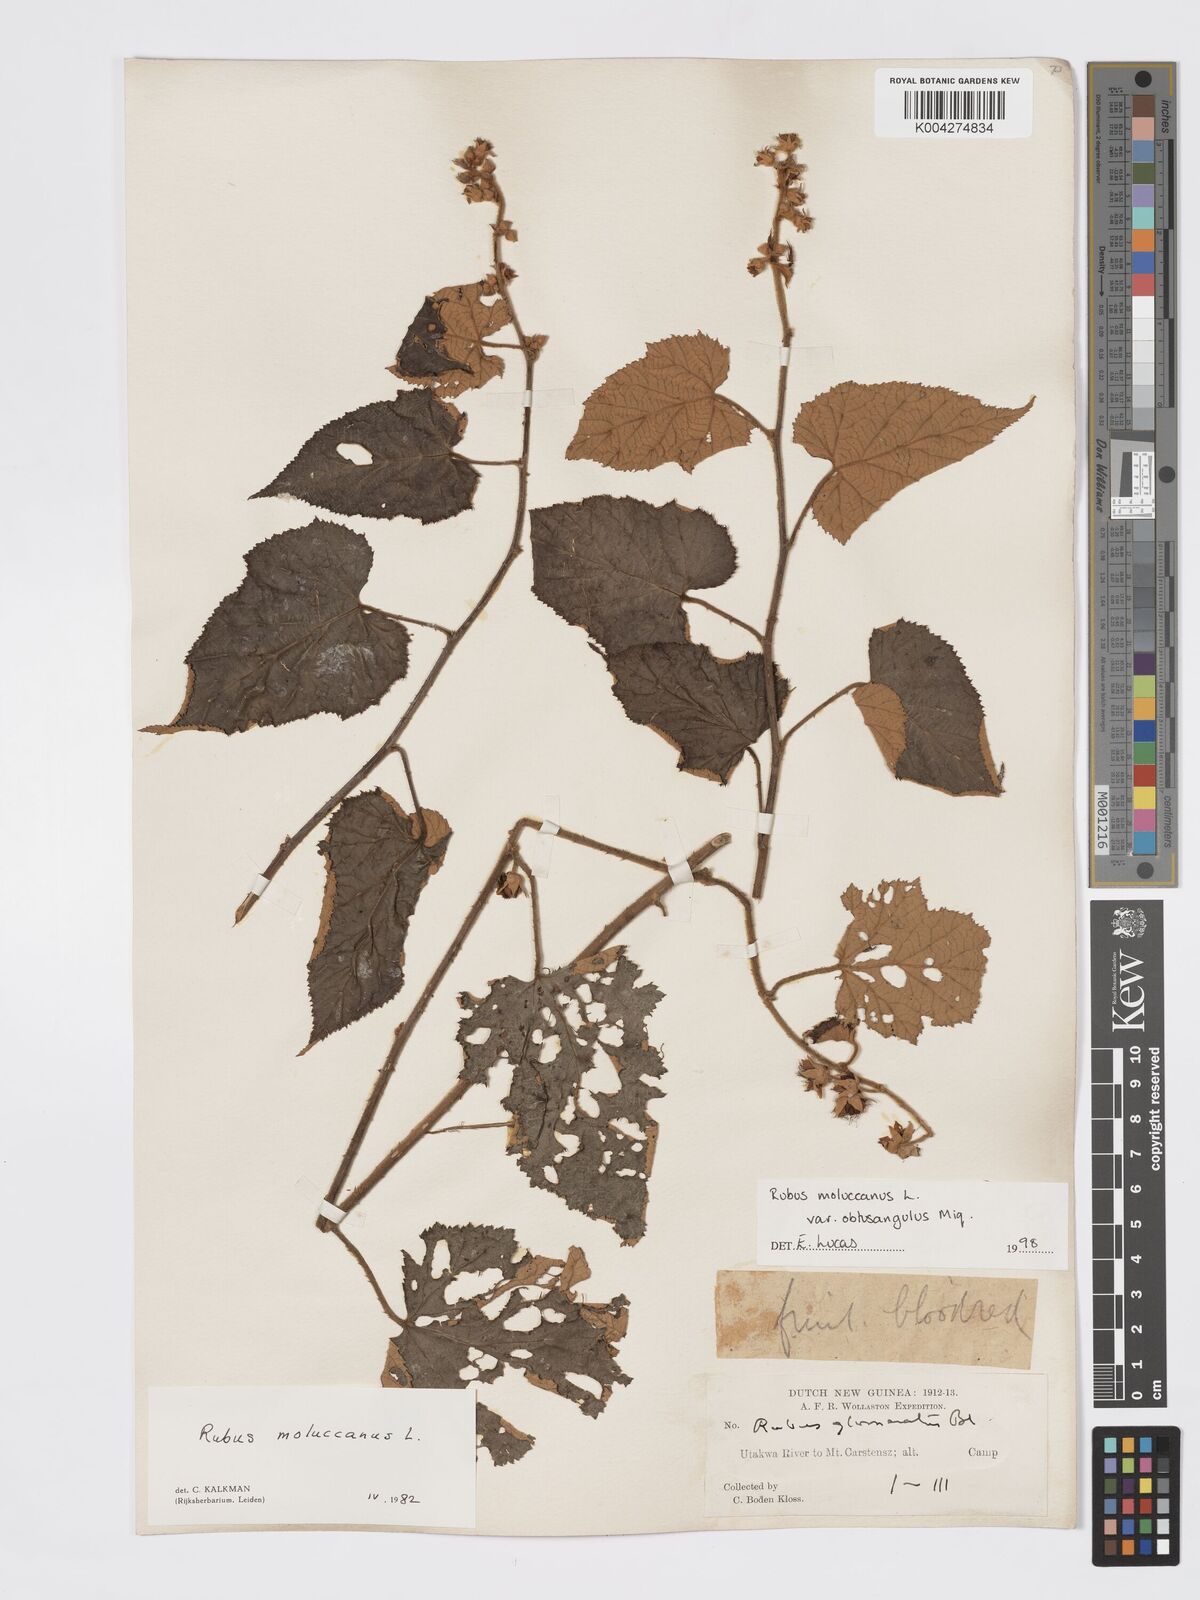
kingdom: Plantae
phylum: Tracheophyta
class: Magnoliopsida
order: Rosales
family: Rosaceae
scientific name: Rosaceae
